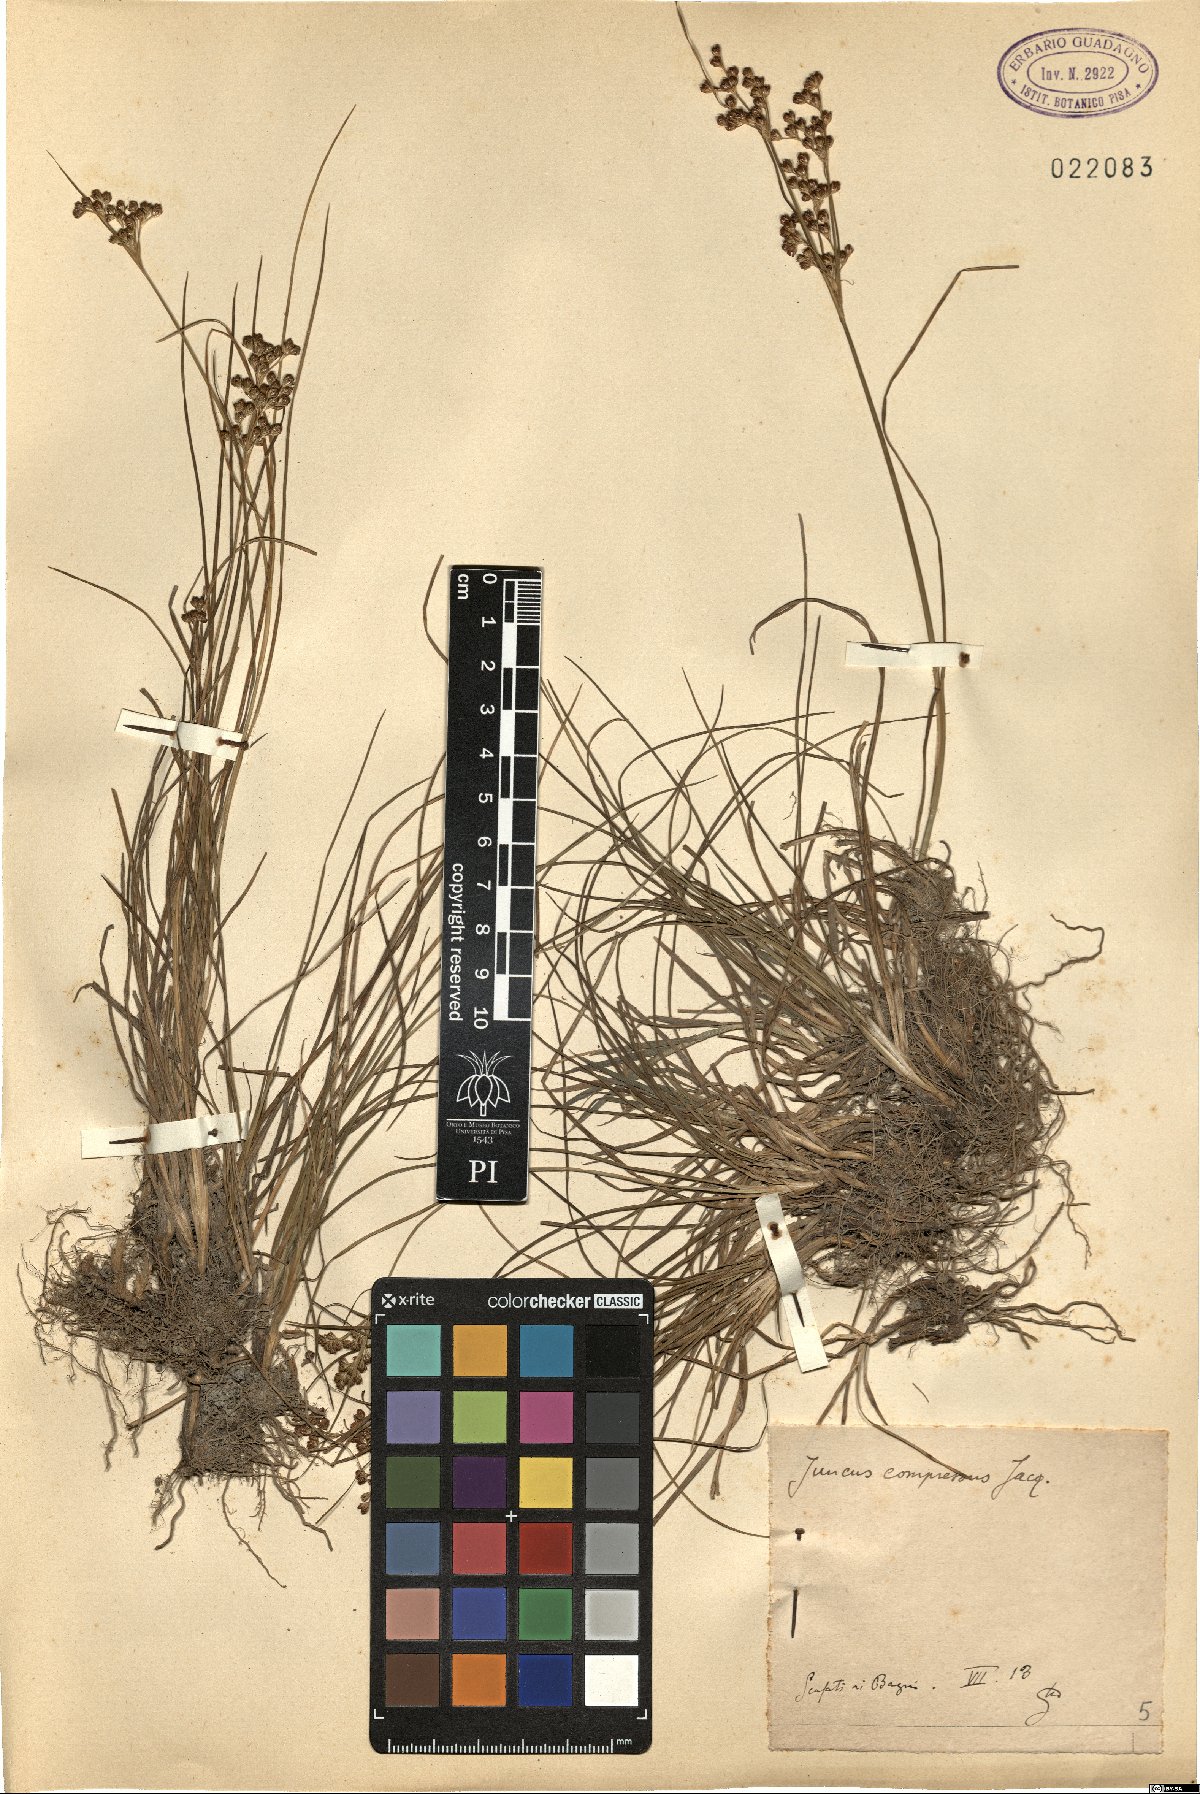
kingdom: Plantae
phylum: Tracheophyta
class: Liliopsida
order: Poales
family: Juncaceae
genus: Juncus
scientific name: Juncus compressus
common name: Round-fruited rush
